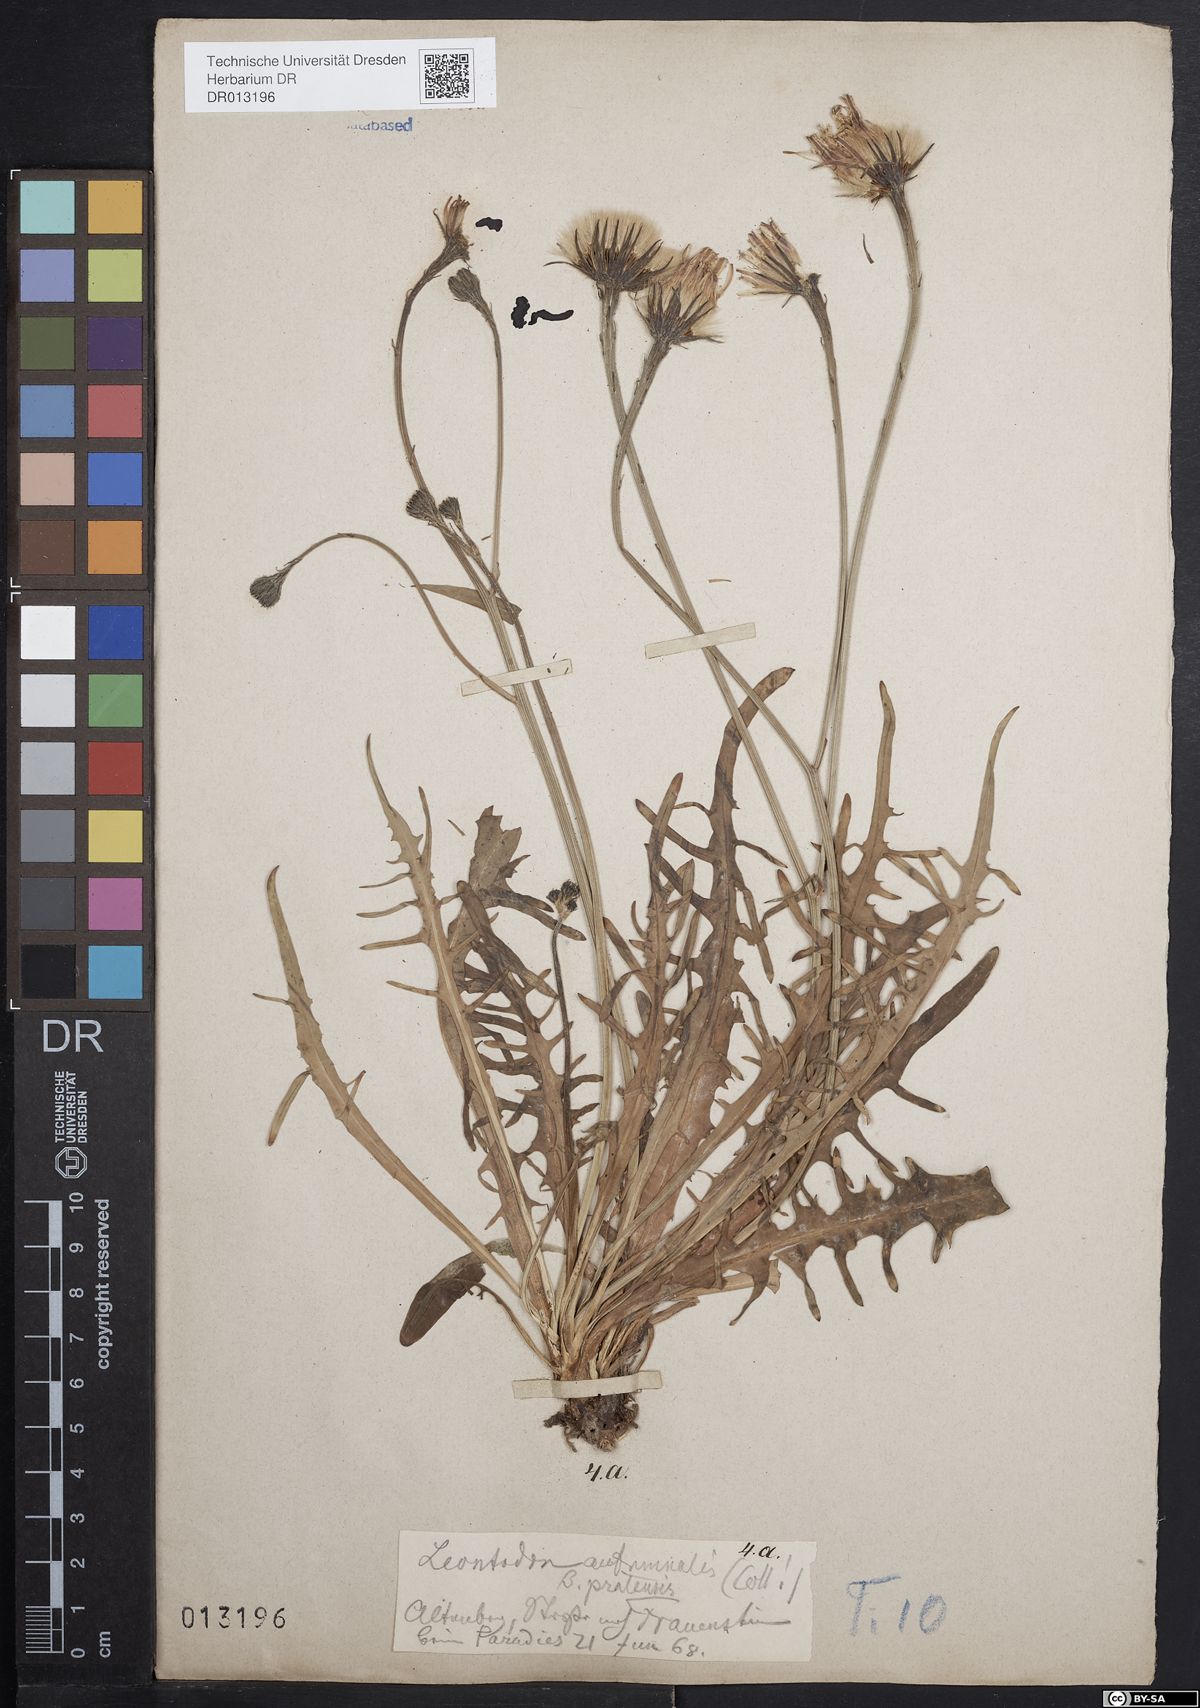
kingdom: Plantae
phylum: Tracheophyta
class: Magnoliopsida
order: Asterales
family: Asteraceae
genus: Scorzoneroides
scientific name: Scorzoneroides autumnalis
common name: Autumn hawkbit
